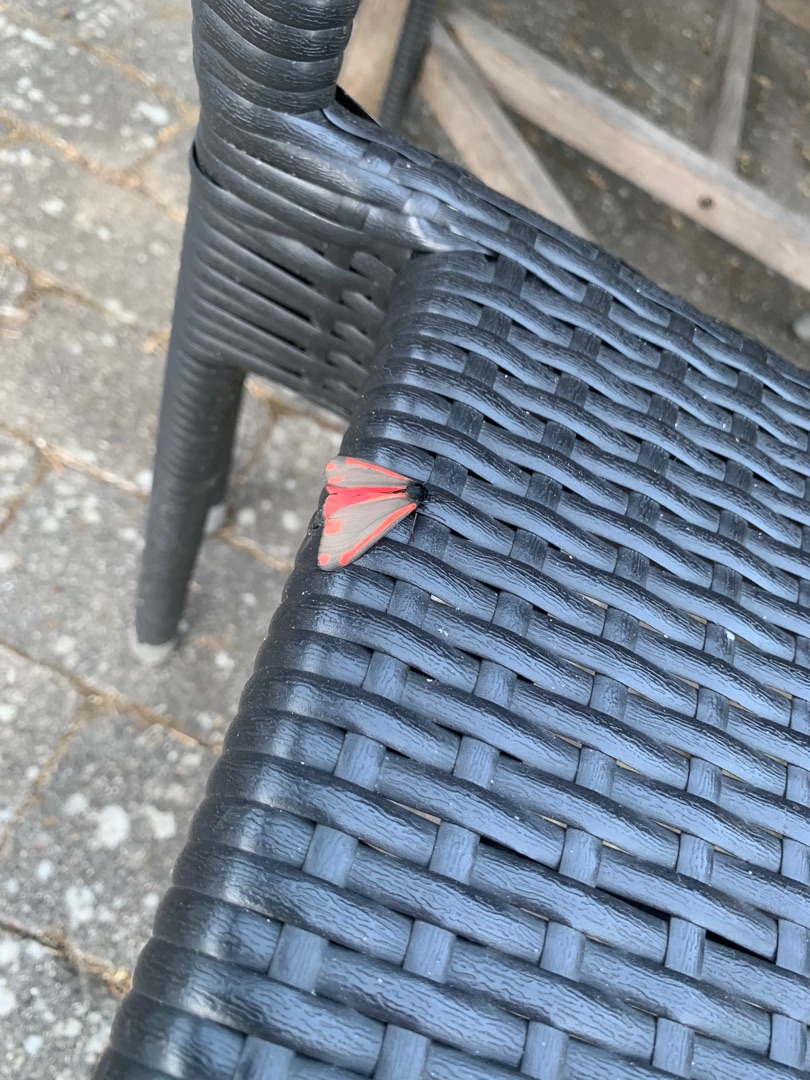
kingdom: Animalia
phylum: Arthropoda
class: Insecta
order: Lepidoptera
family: Erebidae
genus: Tyria
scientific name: Tyria jacobaeae
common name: Blodplet
